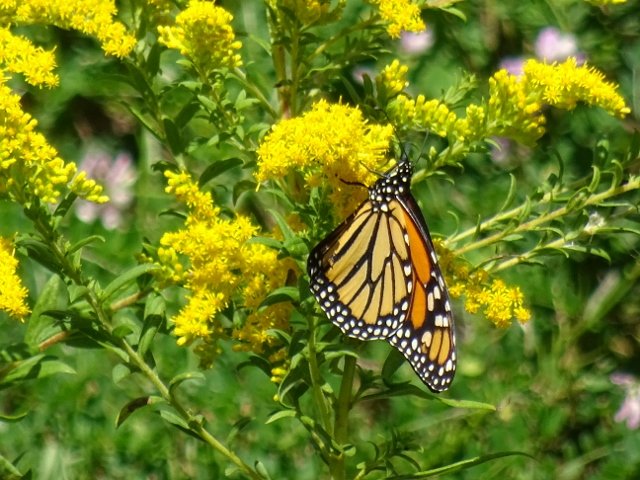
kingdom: Animalia
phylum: Arthropoda
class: Insecta
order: Lepidoptera
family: Nymphalidae
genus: Danaus
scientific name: Danaus plexippus
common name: Monarch
